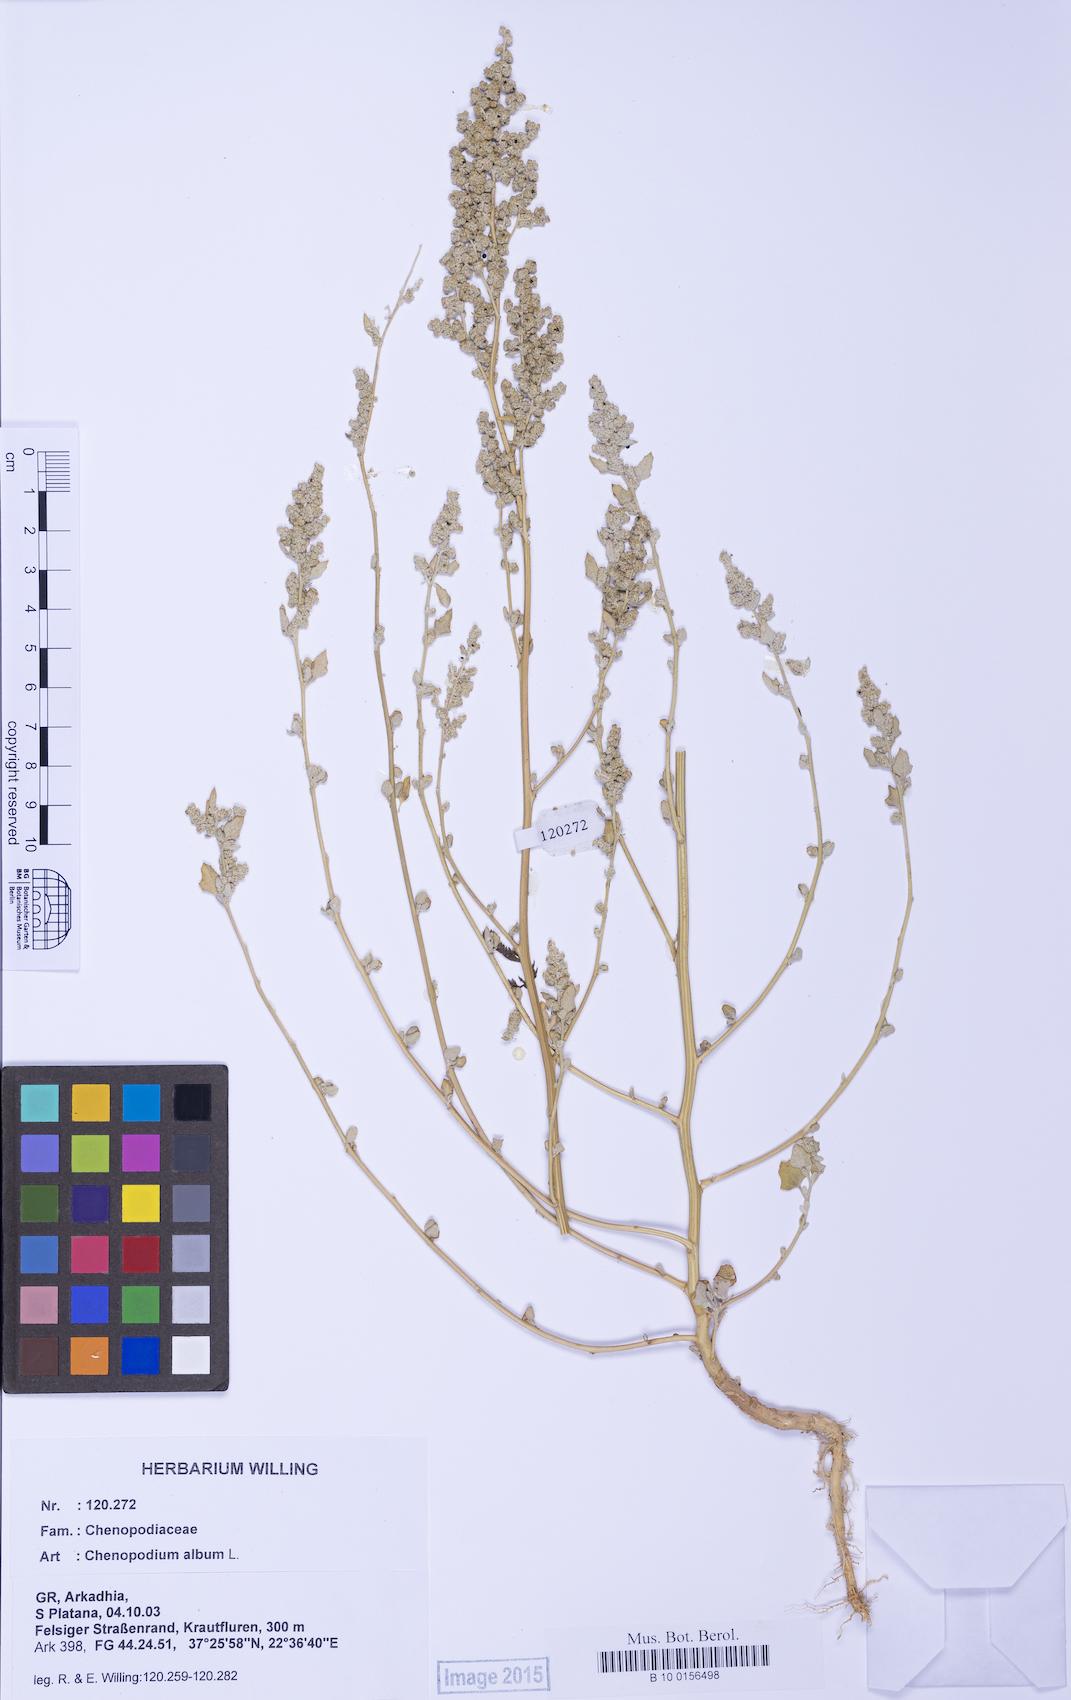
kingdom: Plantae
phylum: Tracheophyta
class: Magnoliopsida
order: Caryophyllales
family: Amaranthaceae
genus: Chenopodium
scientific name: Chenopodium album
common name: Fat-hen
